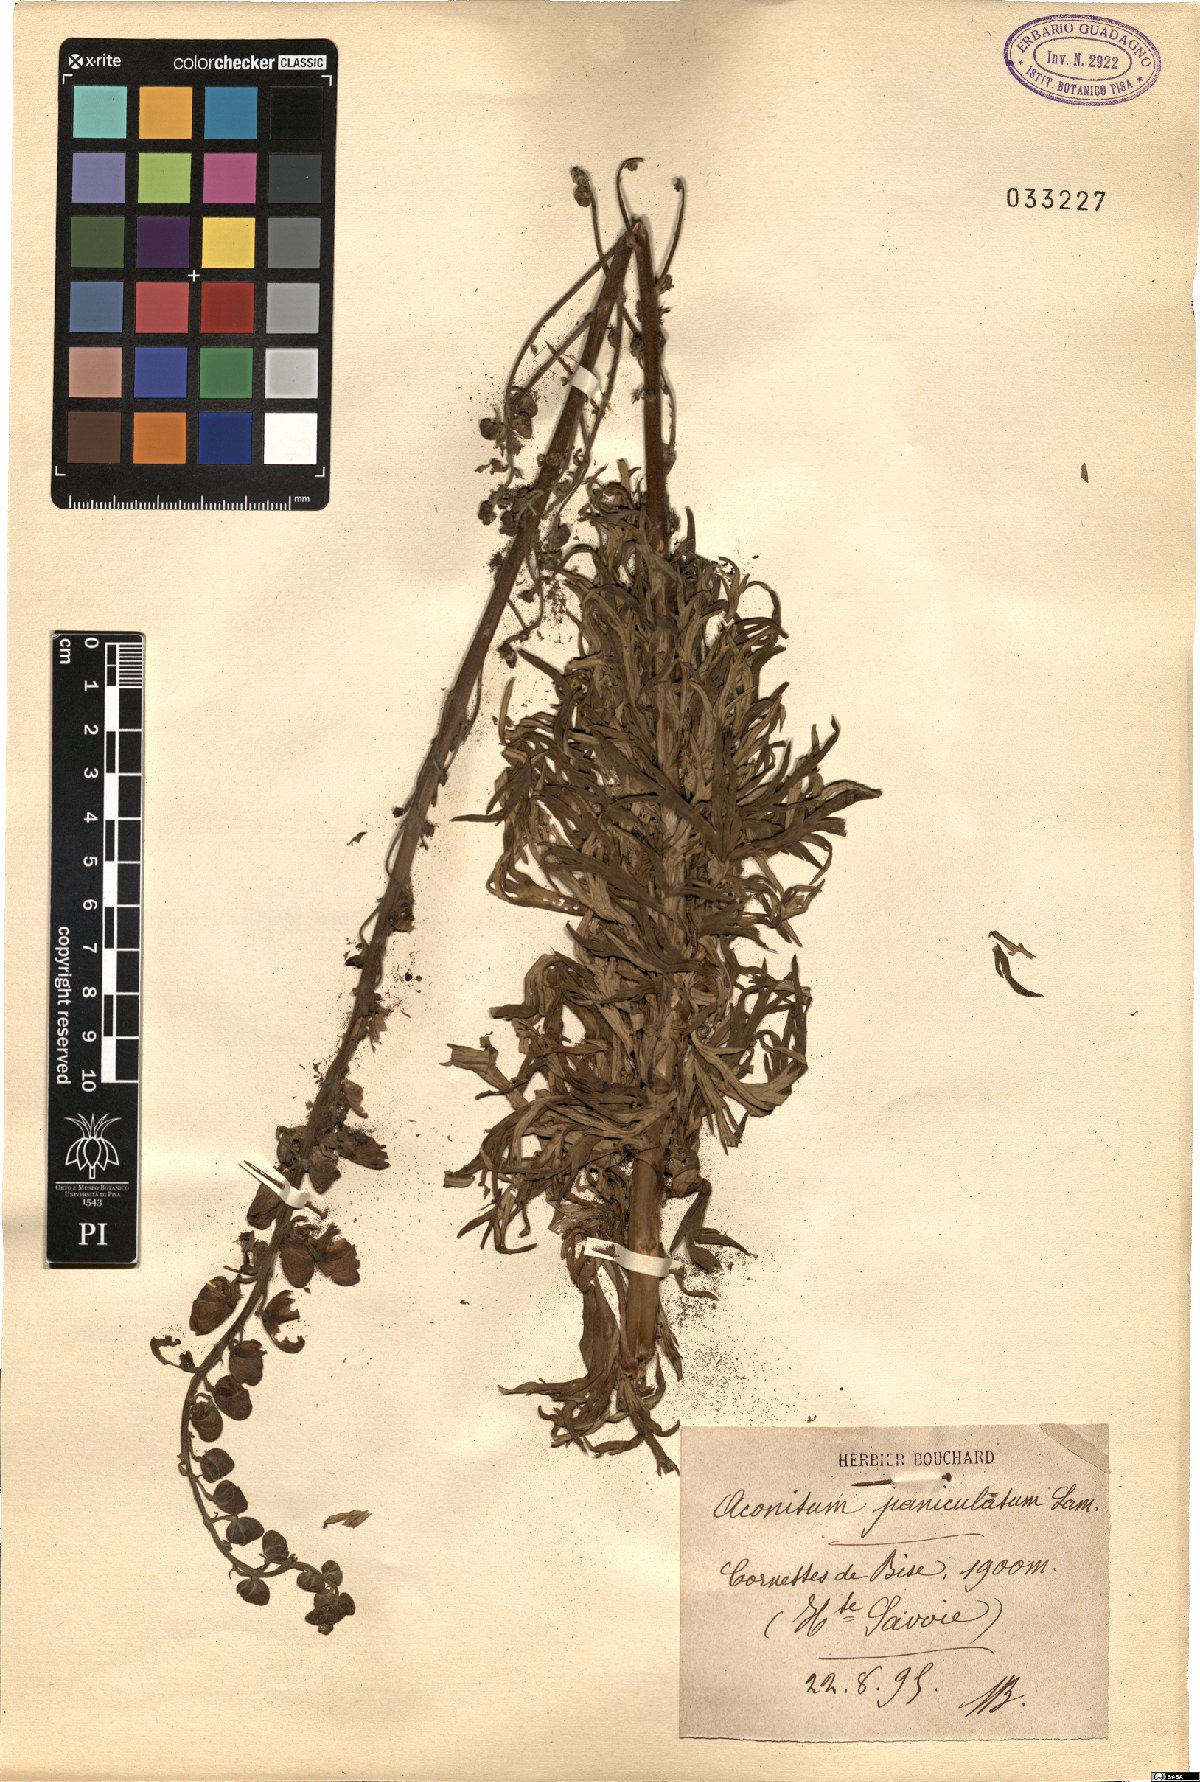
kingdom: Plantae
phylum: Tracheophyta
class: Magnoliopsida
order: Ranunculales
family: Ranunculaceae
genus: Aconitum
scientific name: Aconitum degenii
